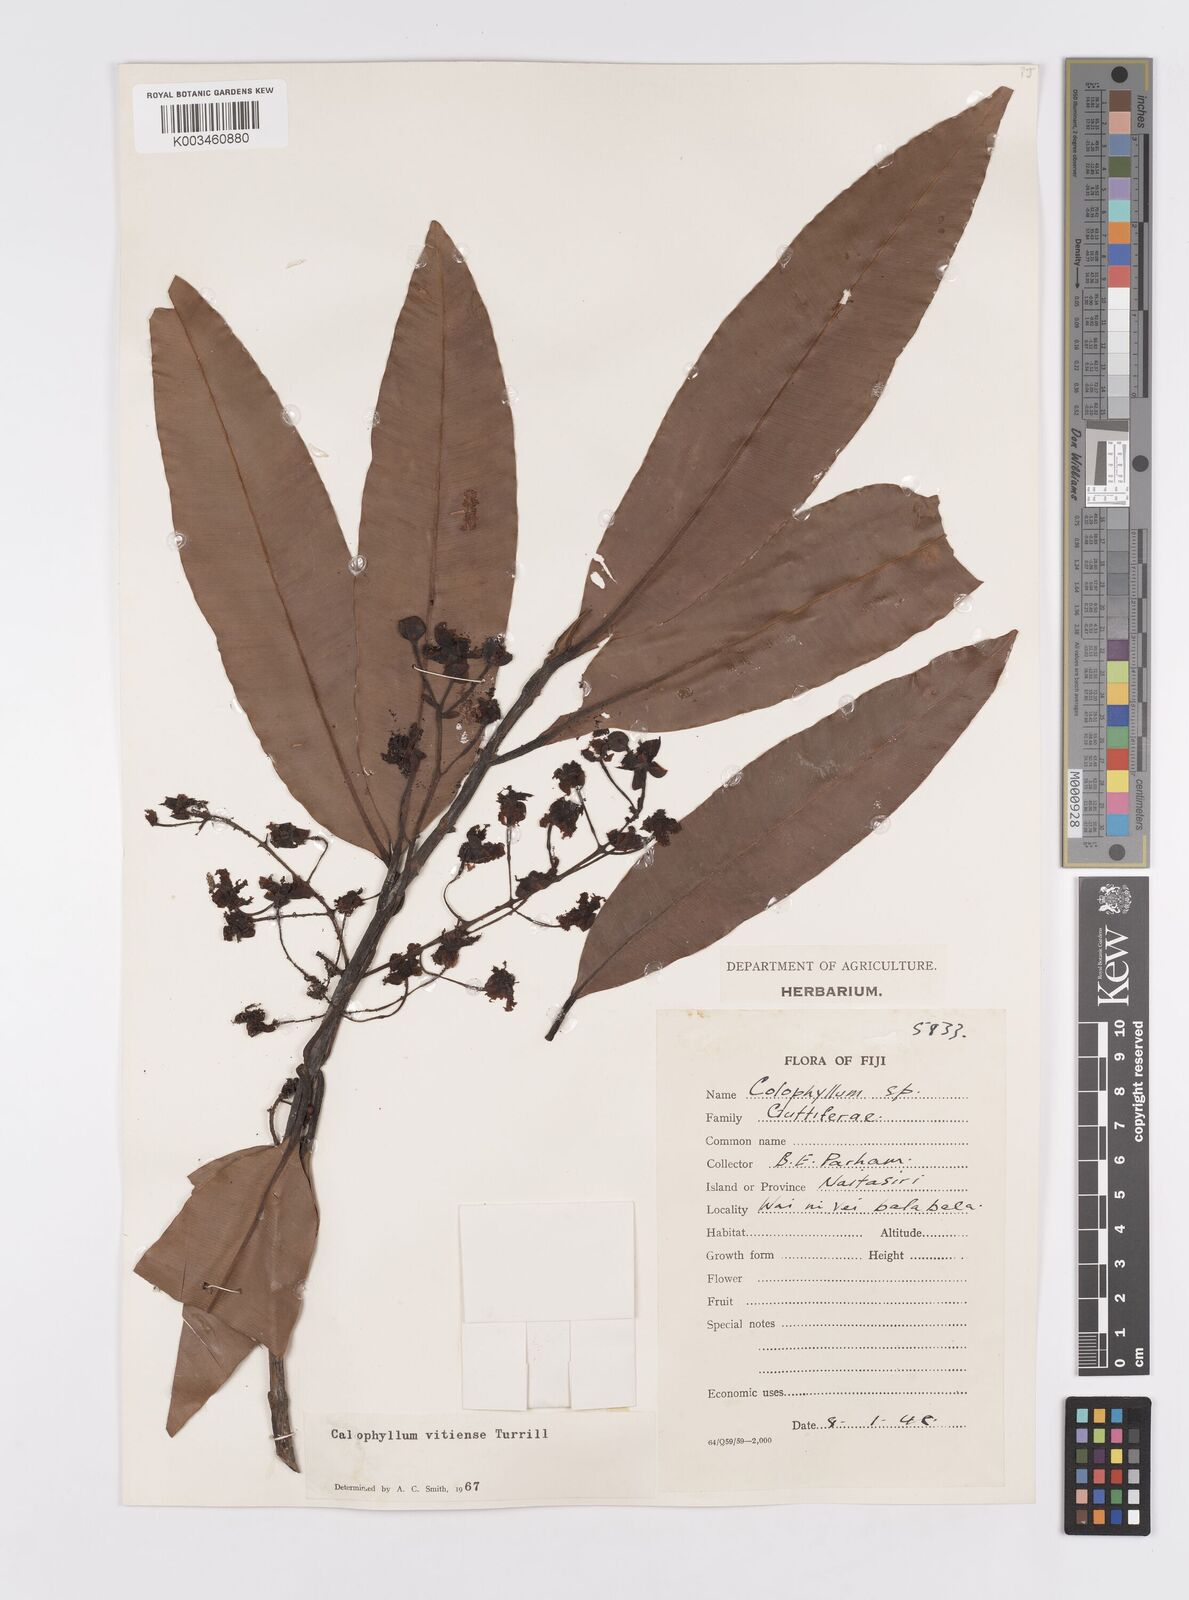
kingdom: Plantae
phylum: Tracheophyta
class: Magnoliopsida
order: Malpighiales
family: Calophyllaceae
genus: Calophyllum
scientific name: Calophyllum vitiense
